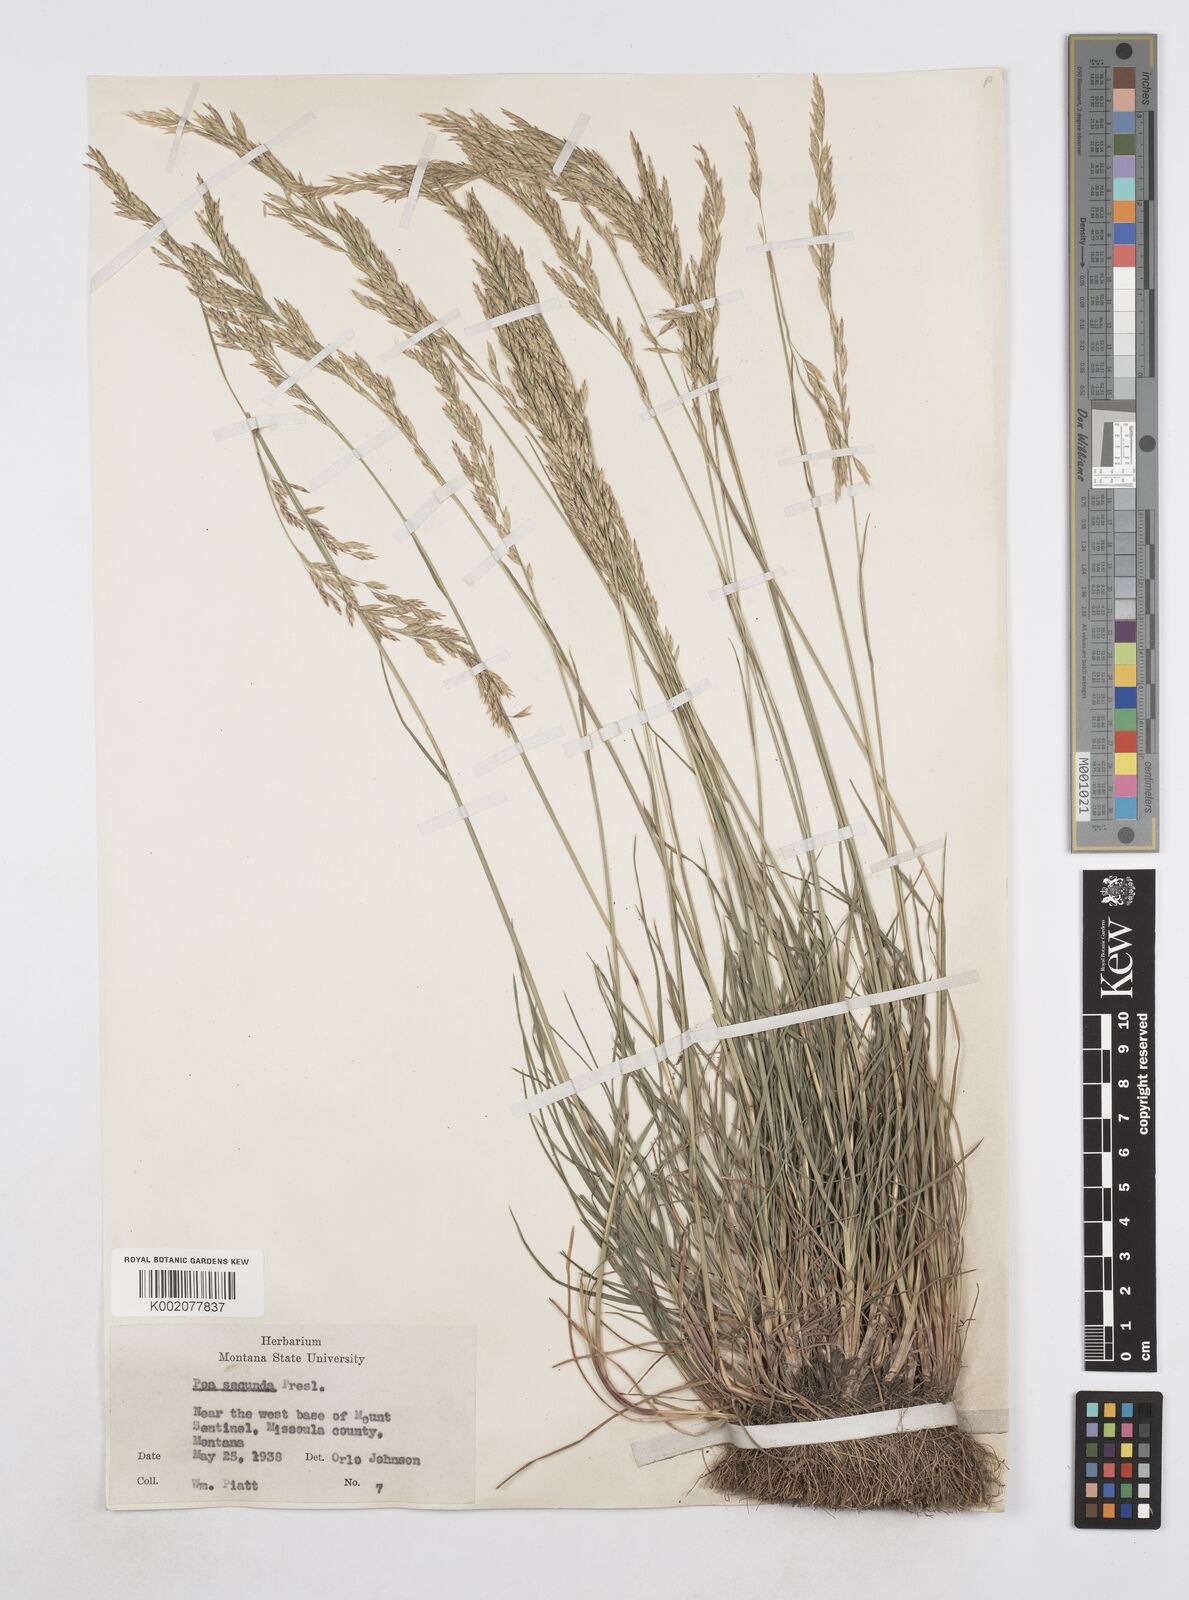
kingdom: Plantae
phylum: Tracheophyta
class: Liliopsida
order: Poales
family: Poaceae
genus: Poa
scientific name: Poa secunda
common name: Sandberg bluegrass
